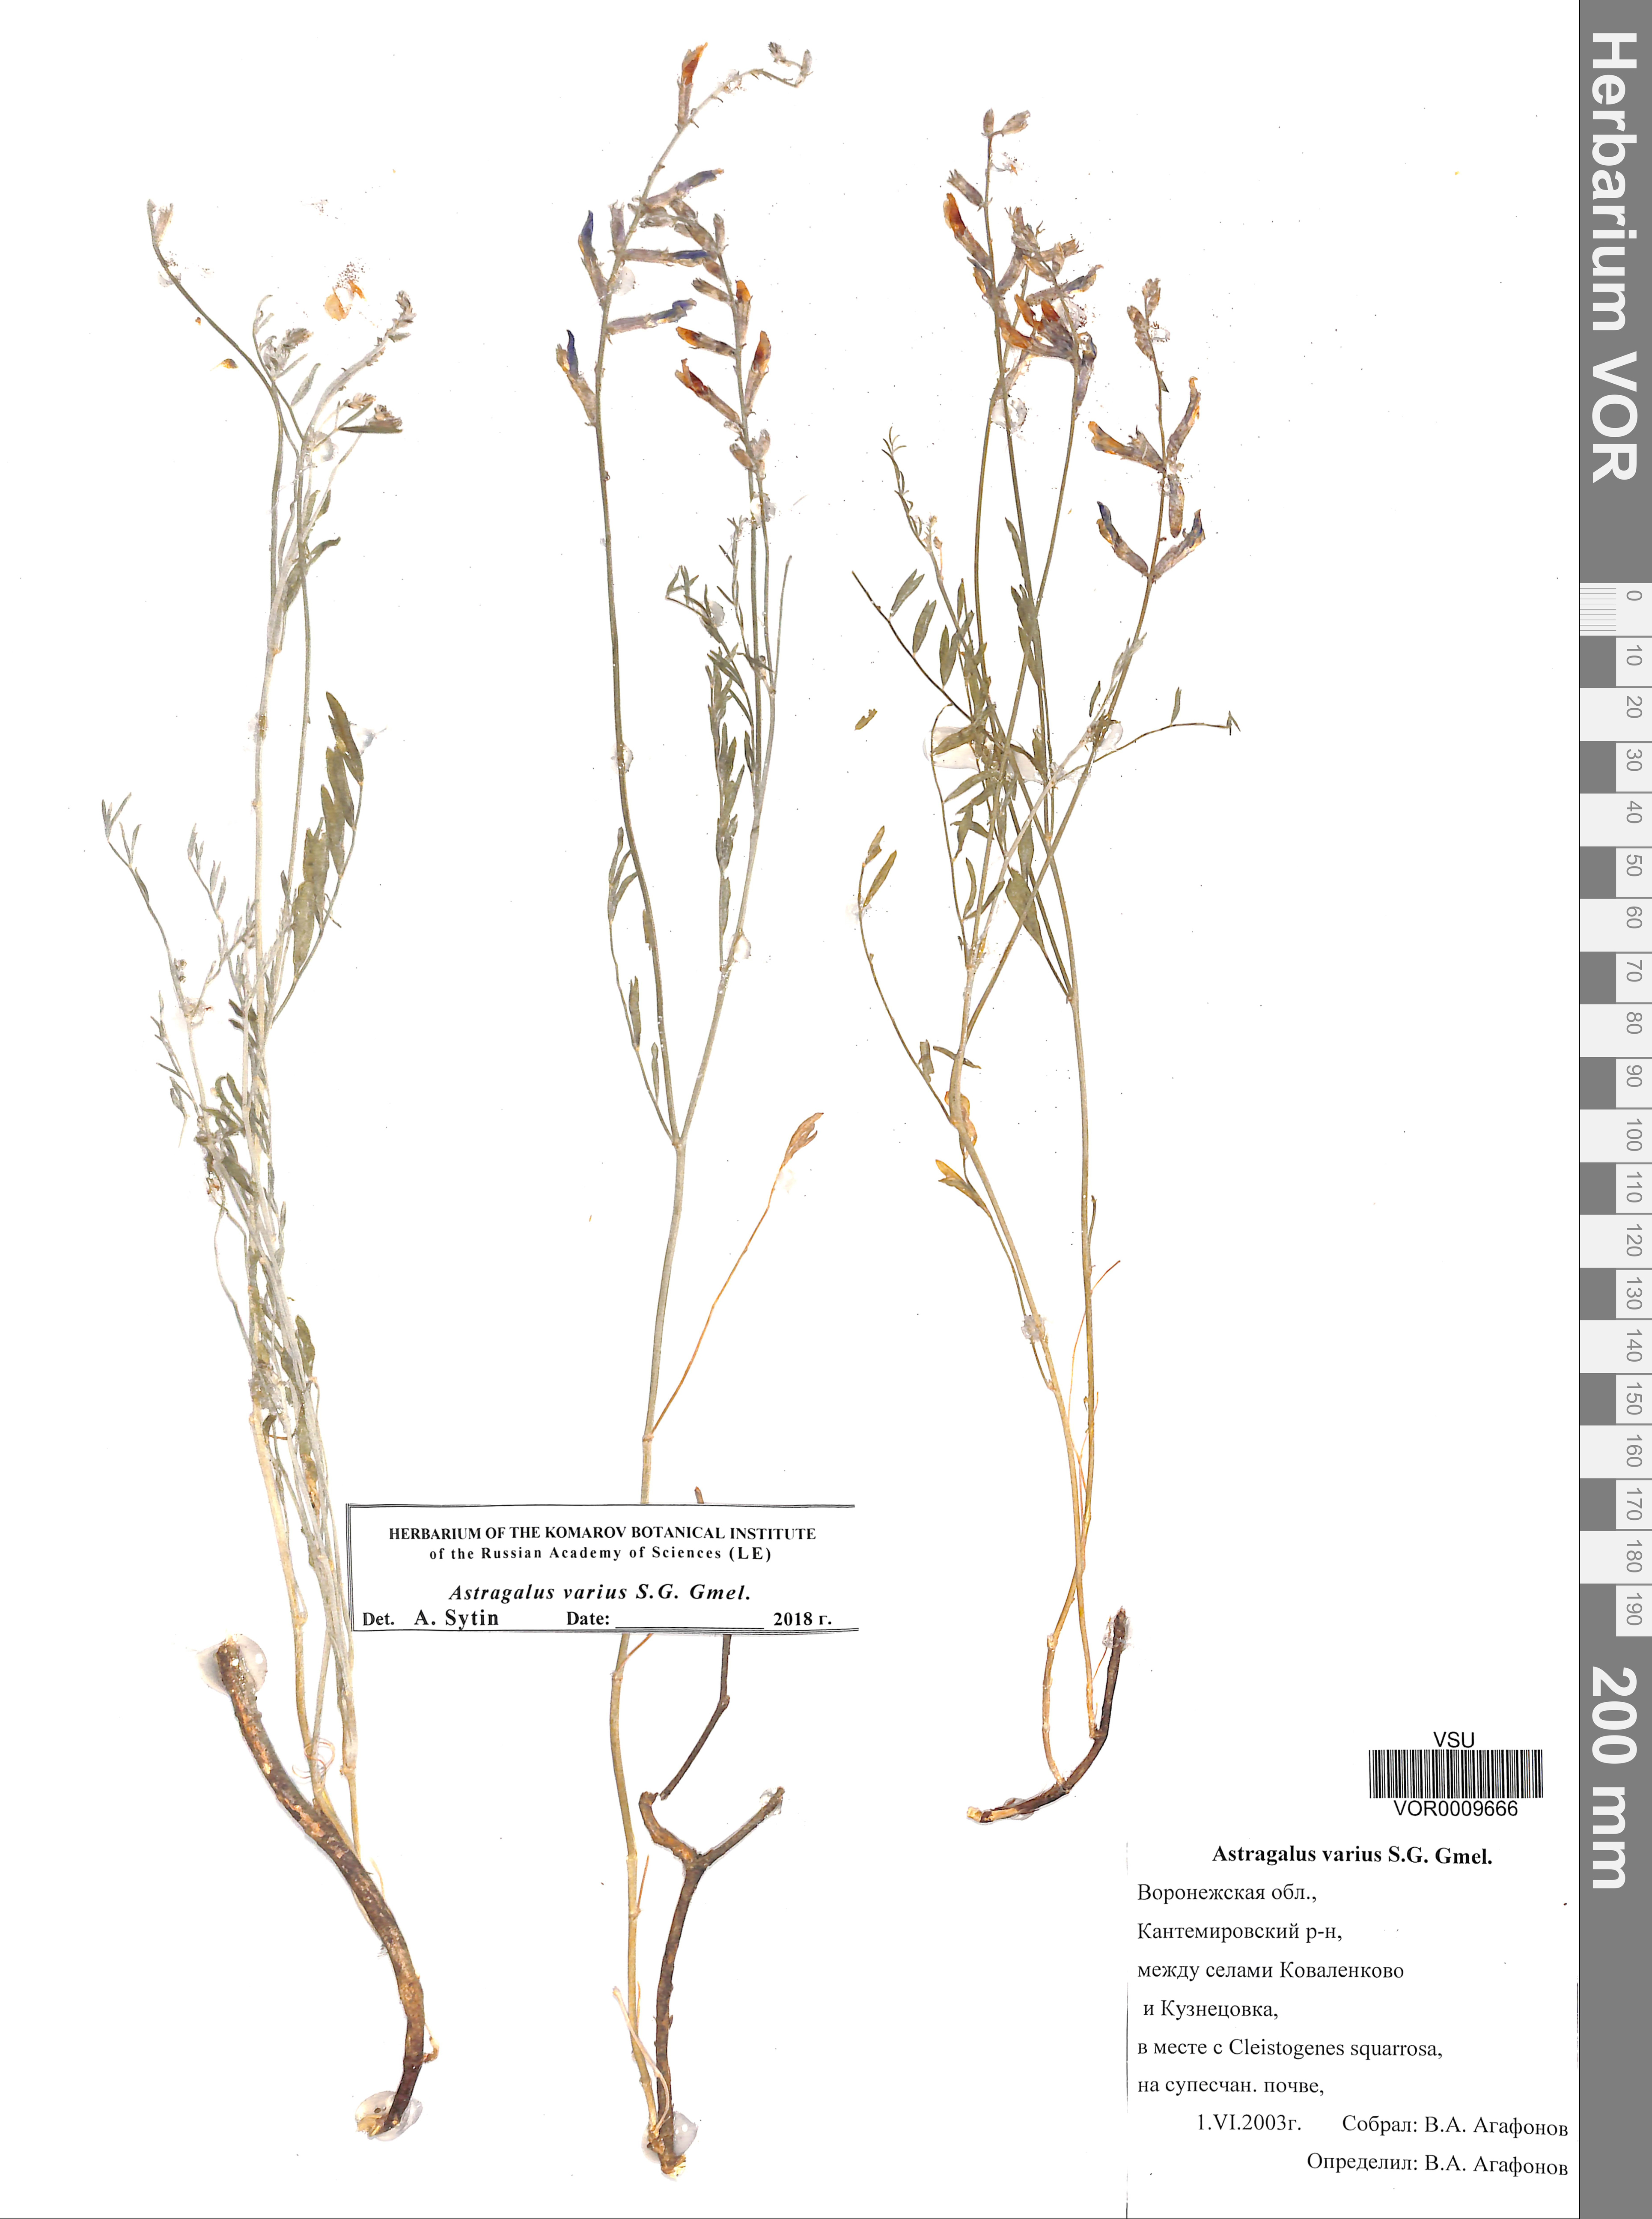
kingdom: Plantae
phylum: Tracheophyta
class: Magnoliopsida
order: Fabales
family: Fabaceae
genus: Astragalus
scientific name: Astragalus varius
